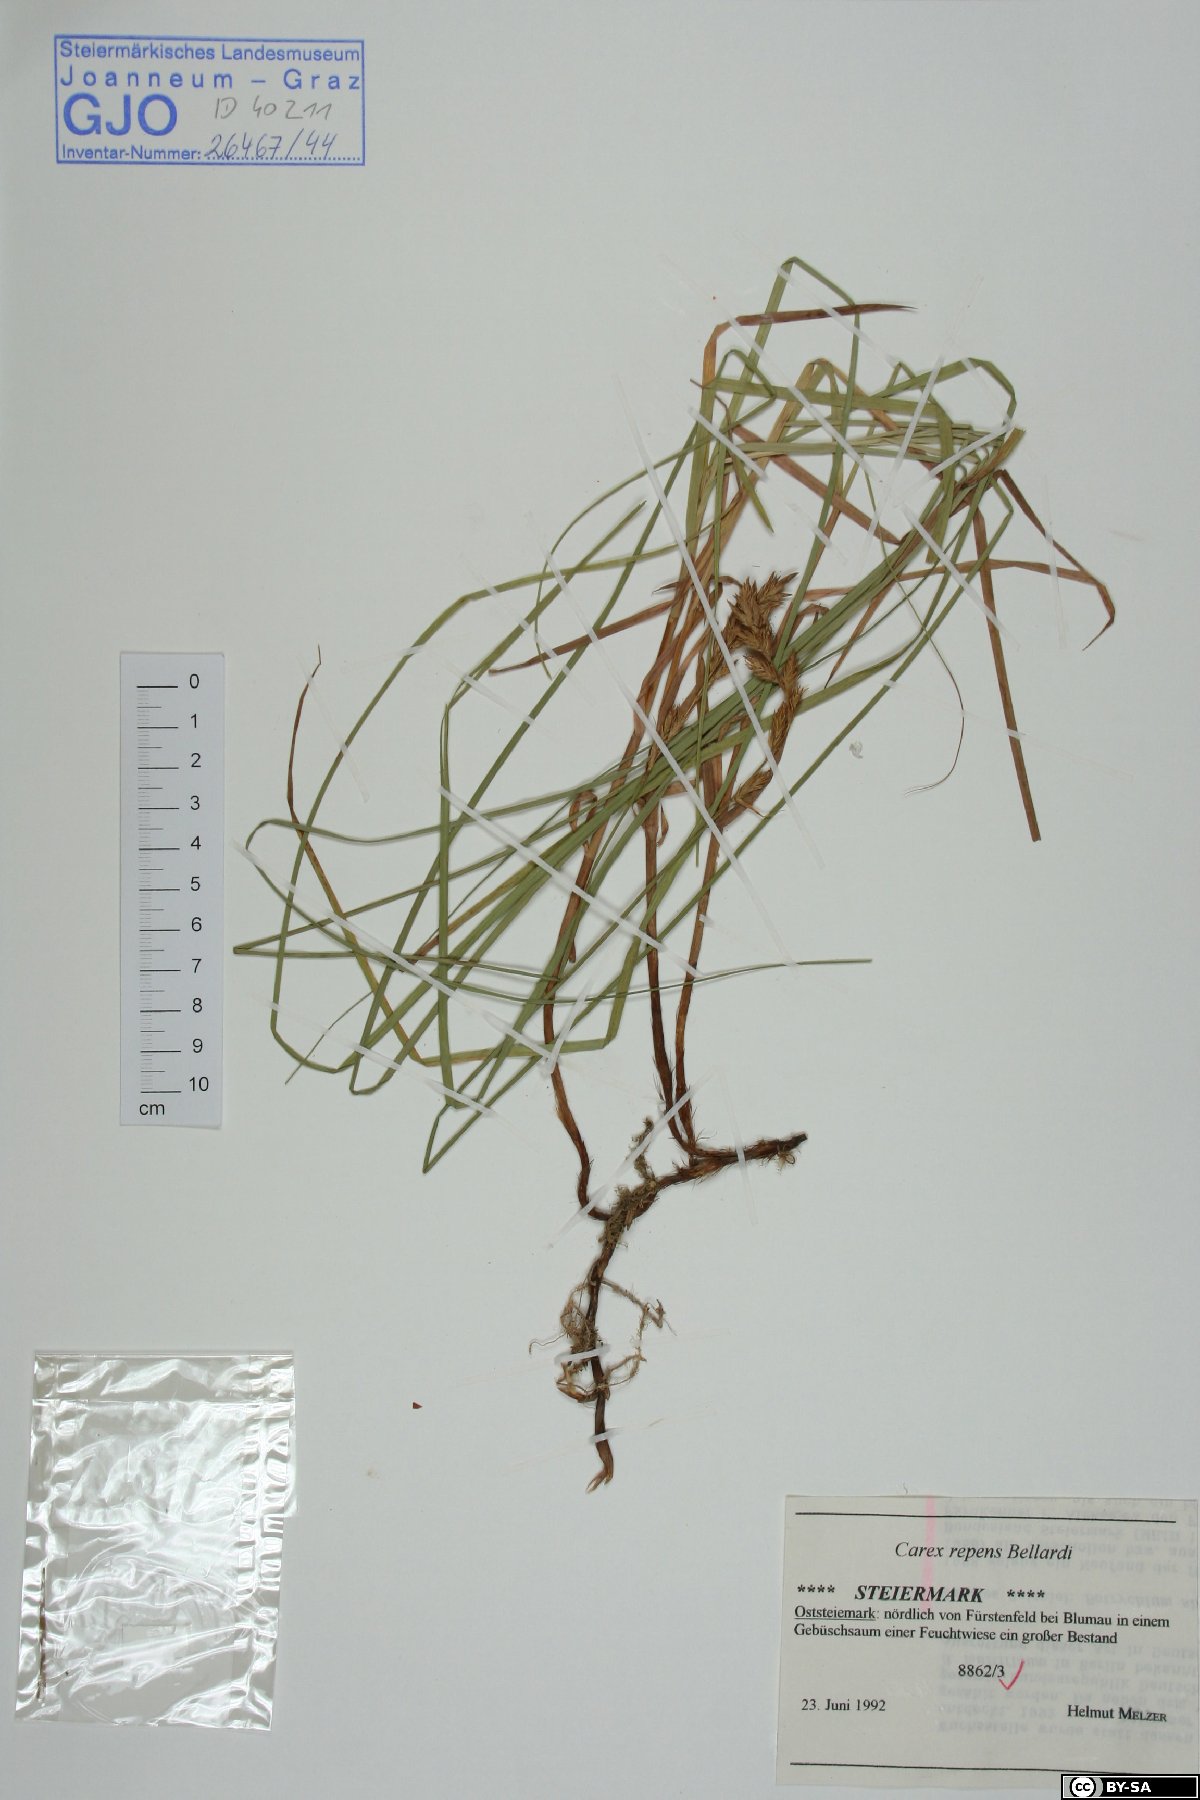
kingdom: Plantae
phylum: Tracheophyta
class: Liliopsida
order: Poales
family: Cyperaceae
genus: Carex
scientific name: Carex repens
